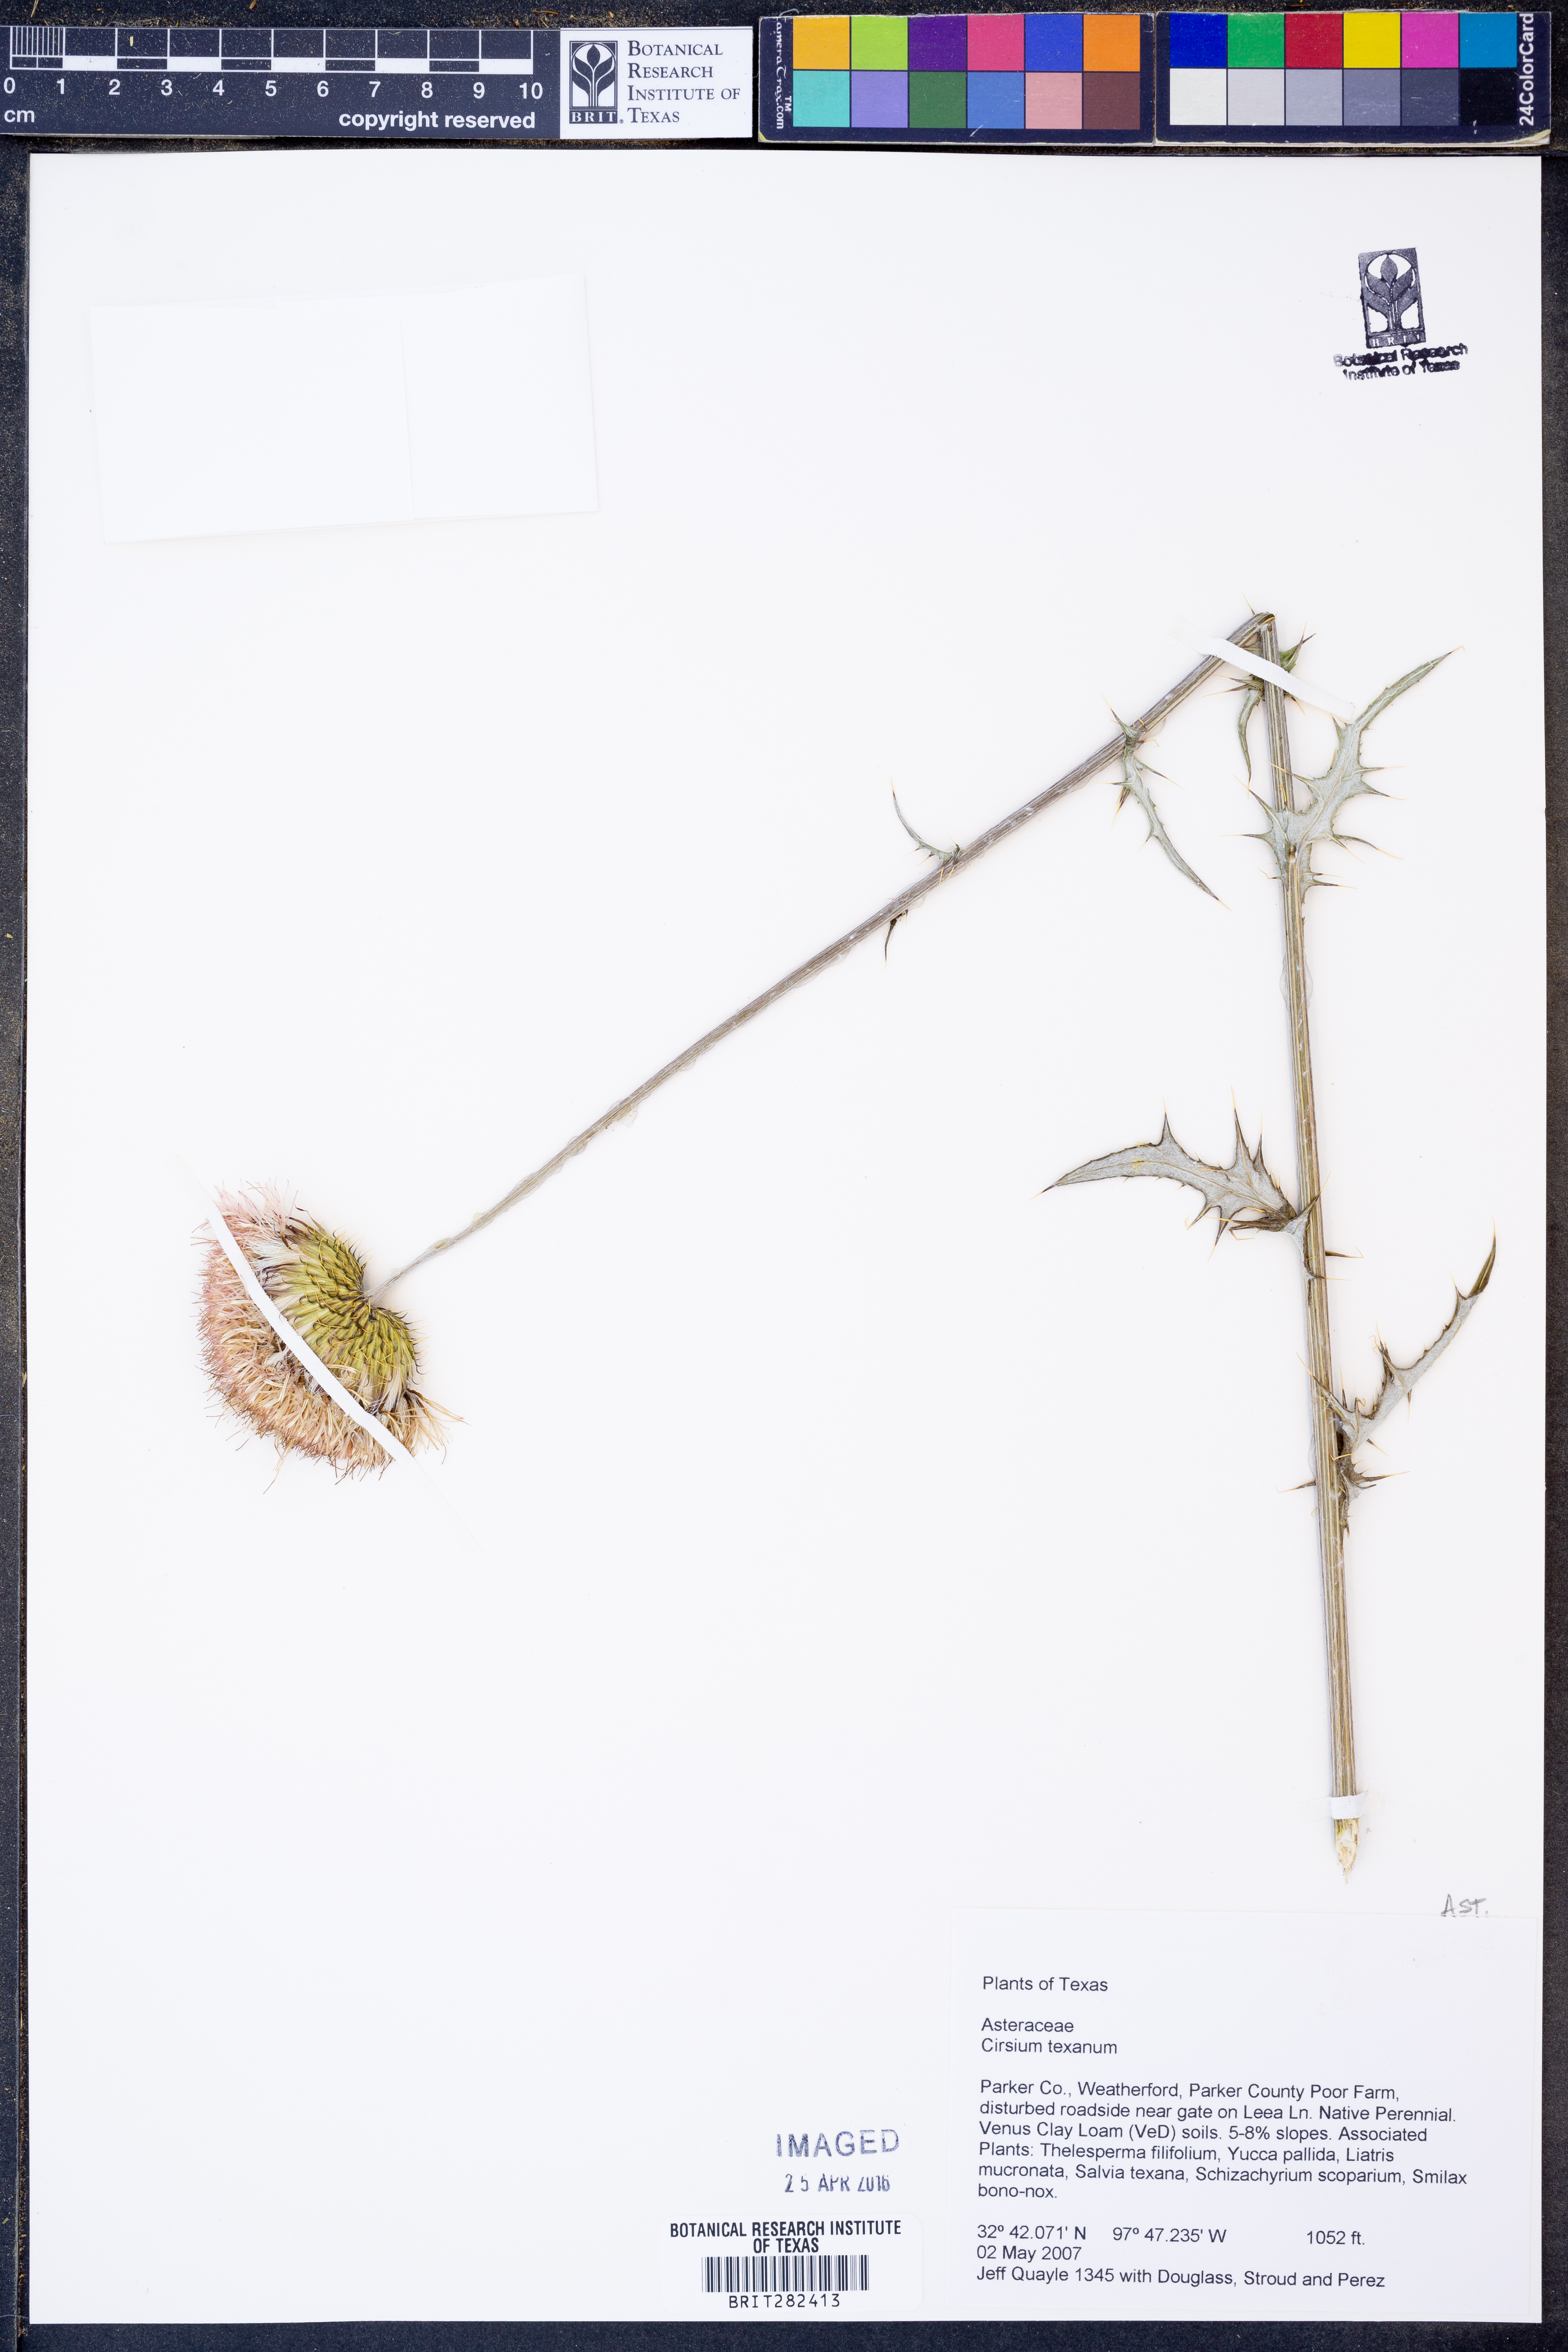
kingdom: Plantae
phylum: Tracheophyta
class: Magnoliopsida
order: Asterales
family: Asteraceae
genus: Cirsium
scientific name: Cirsium texanum
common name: Texas purple thistle
